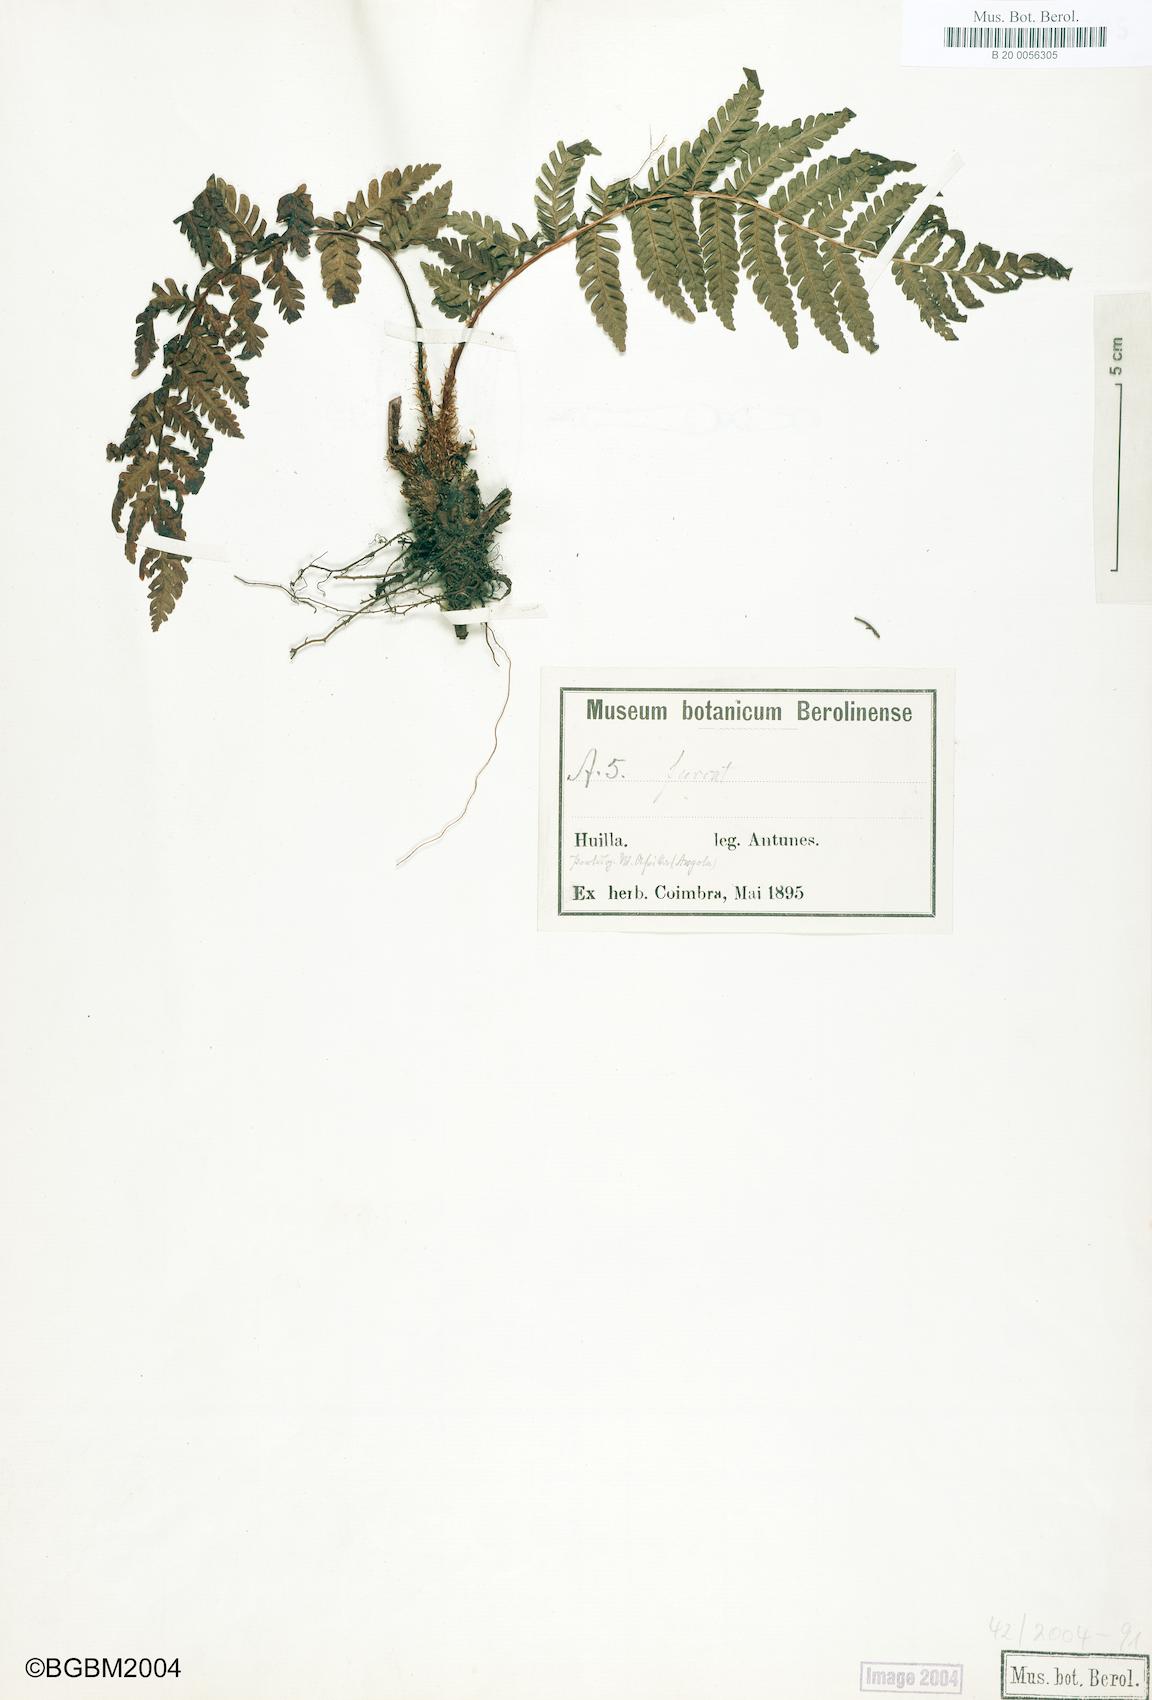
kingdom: Plantae
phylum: Tracheophyta
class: Polypodiopsida
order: Polypodiales
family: Dryopteridaceae
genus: Dryopteris
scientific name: Dryopteris filix-mas
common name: Male fern
